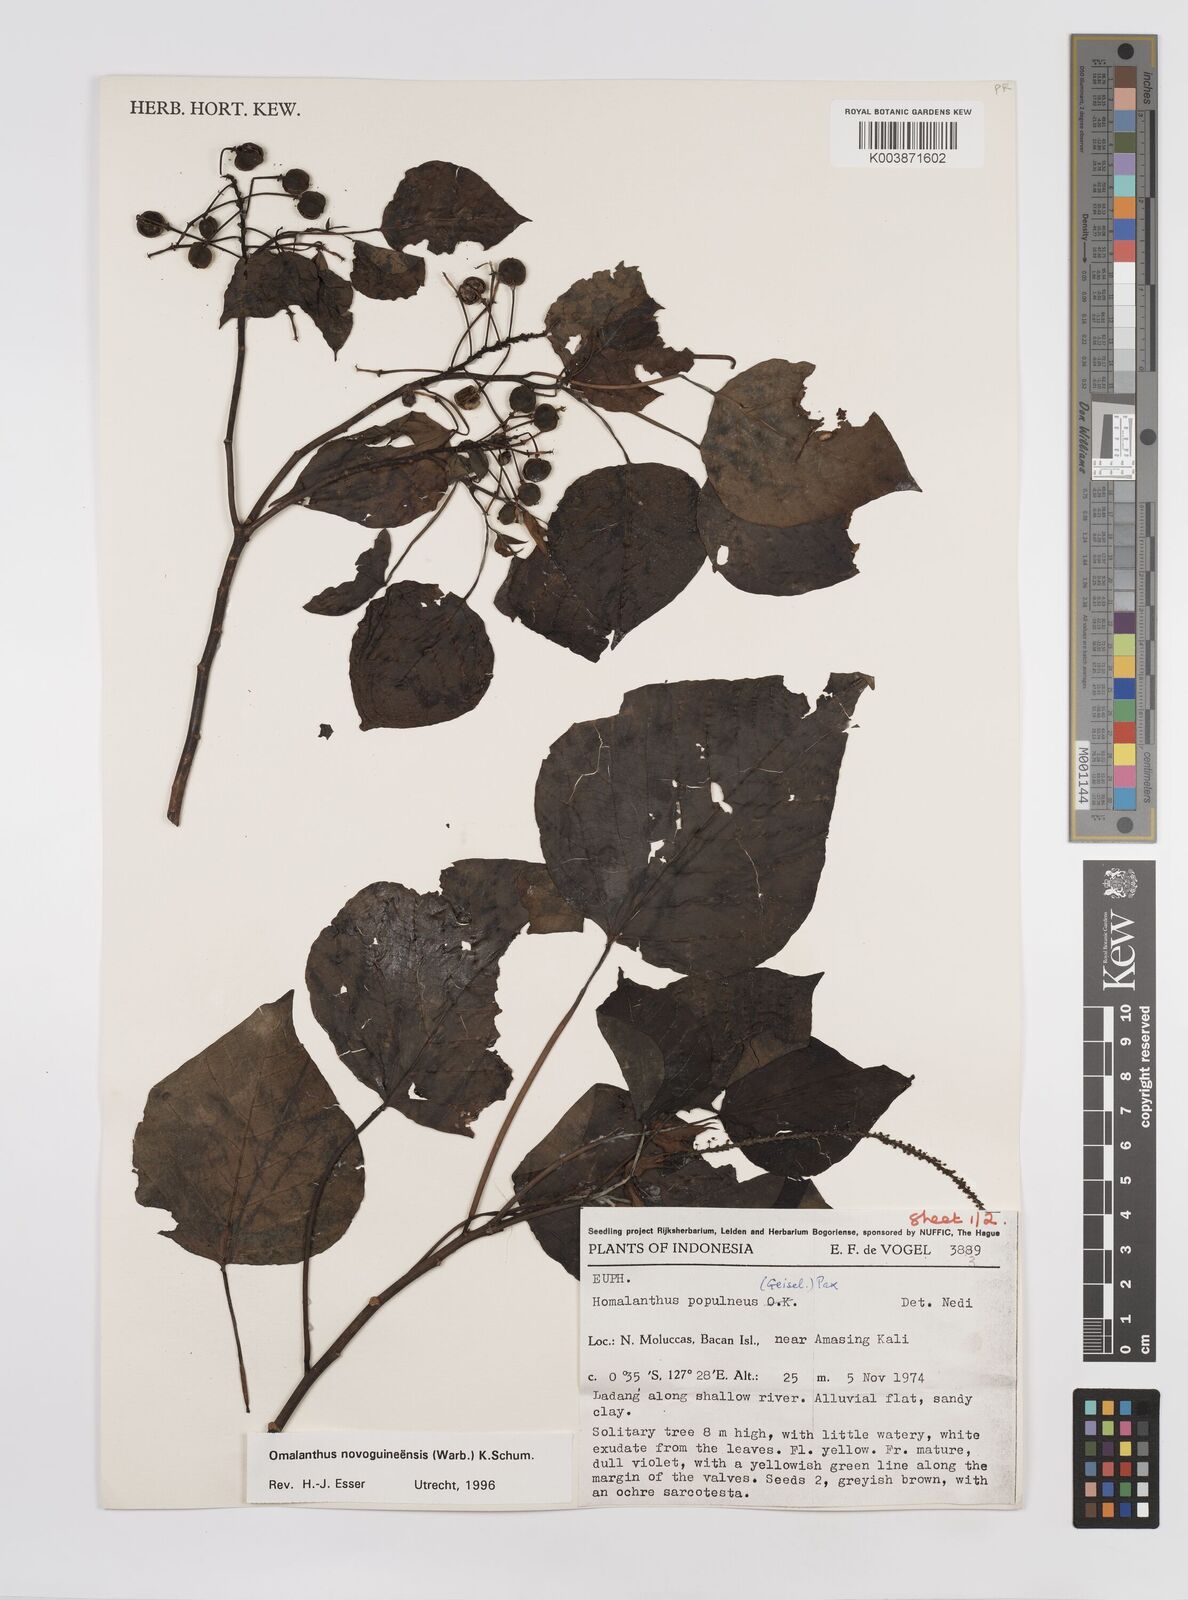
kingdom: Plantae
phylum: Tracheophyta
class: Magnoliopsida
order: Malpighiales
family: Euphorbiaceae
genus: Homalanthus
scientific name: Homalanthus novoguineensis
